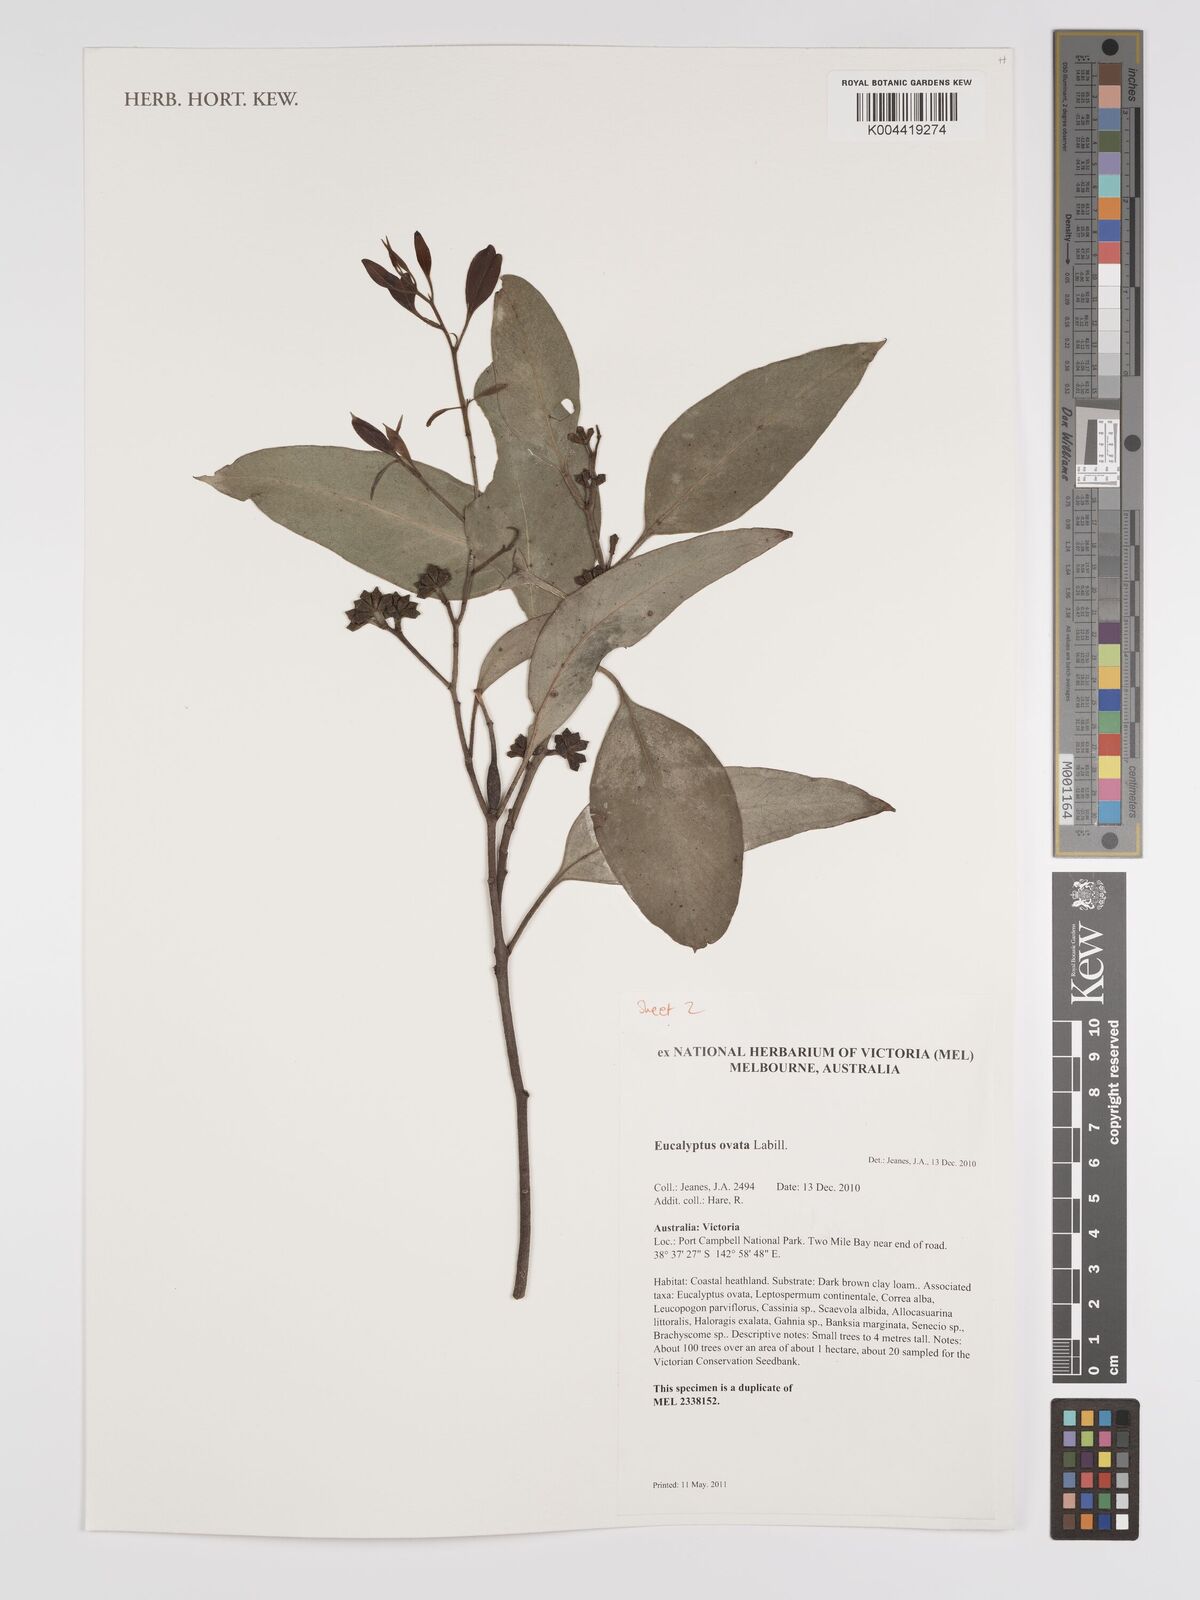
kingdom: Plantae
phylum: Tracheophyta
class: Magnoliopsida
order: Myrtales
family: Myrtaceae
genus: Eucalyptus
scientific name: Eucalyptus ovata
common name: Black-gum
